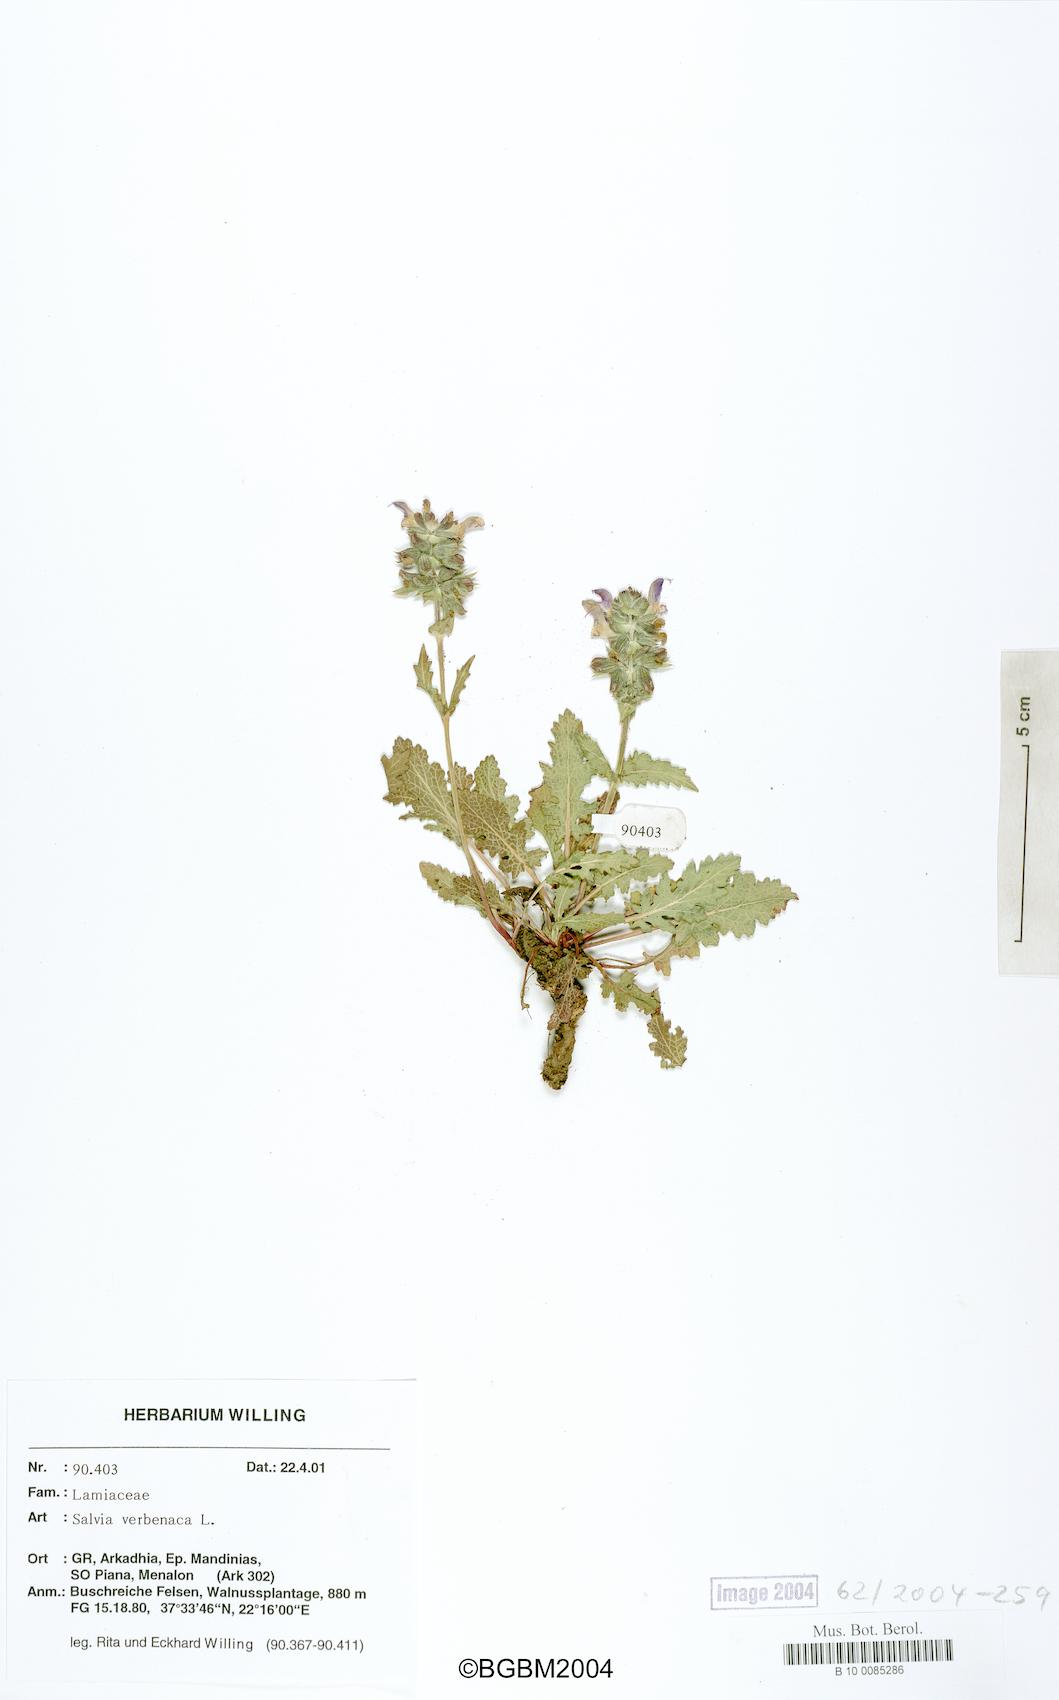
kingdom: Plantae
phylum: Tracheophyta
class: Magnoliopsida
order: Lamiales
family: Lamiaceae
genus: Salvia
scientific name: Salvia verbenaca
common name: Wild clary
